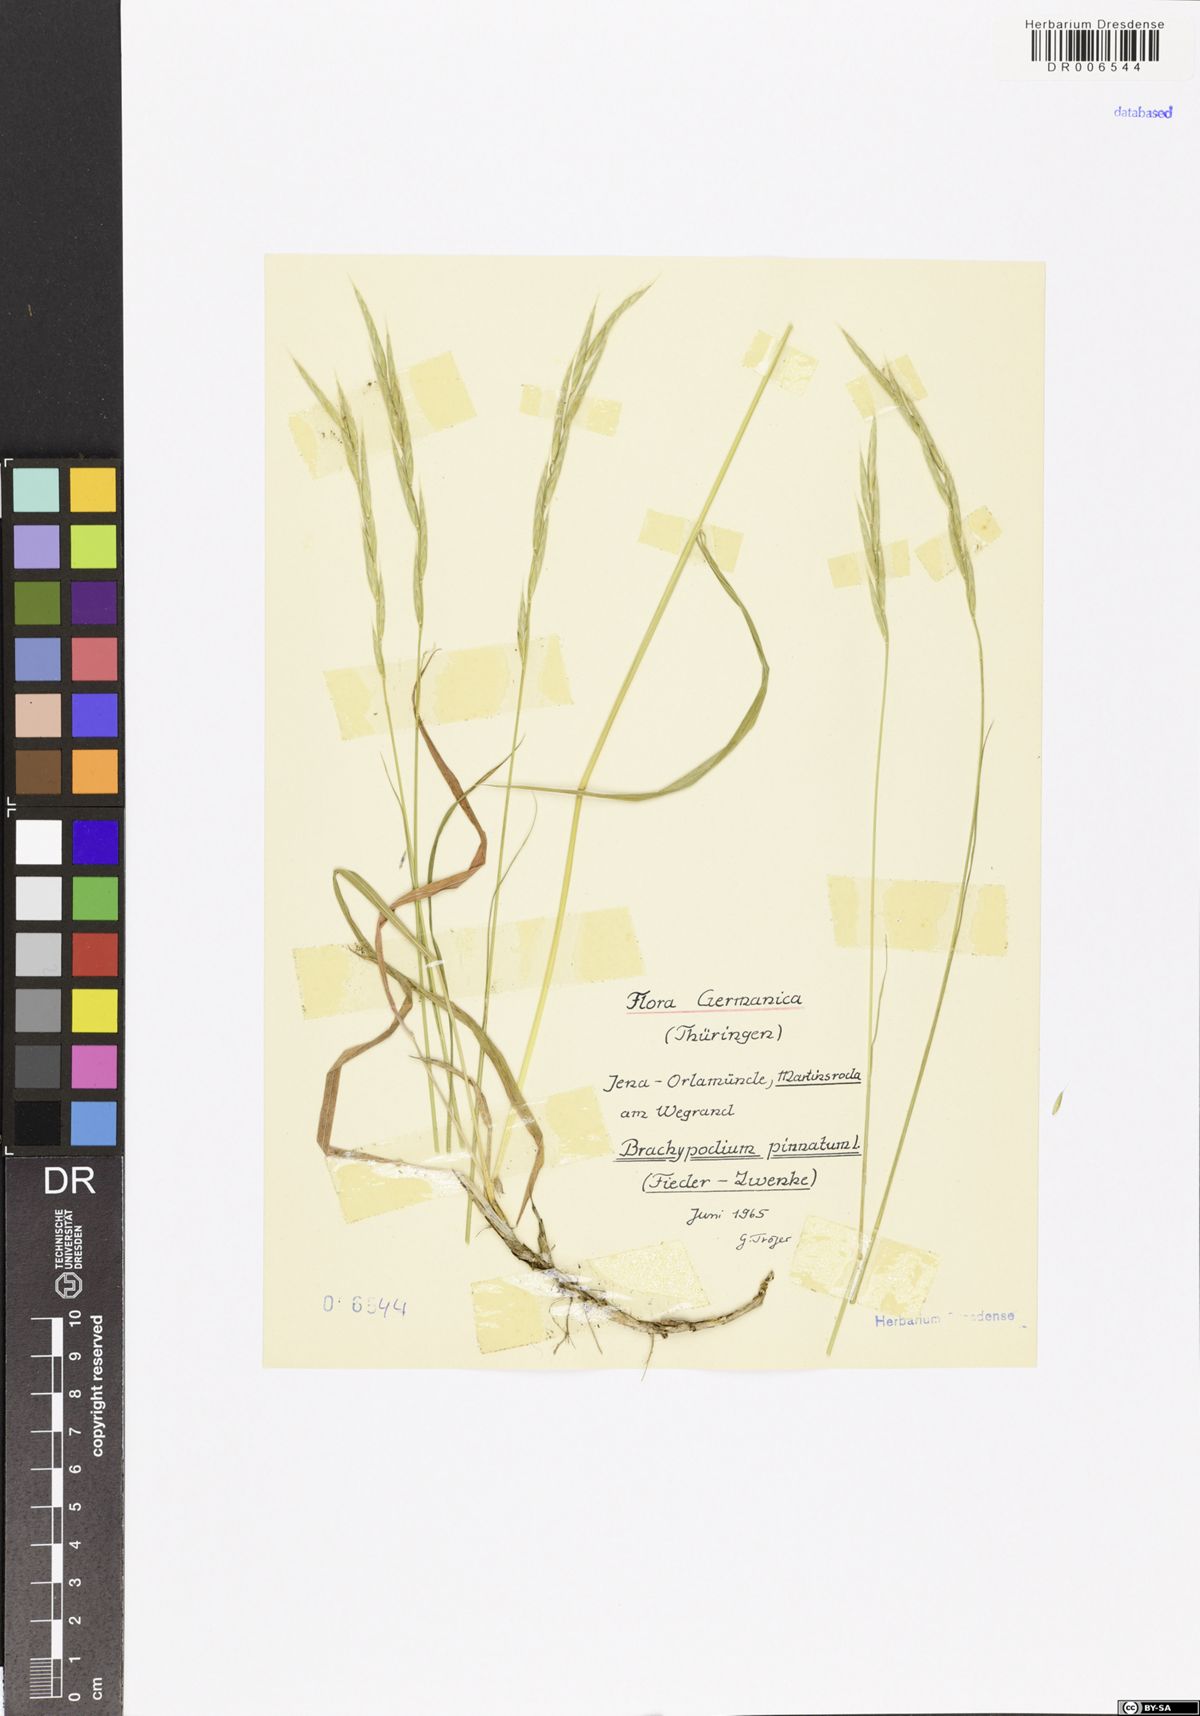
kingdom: Plantae
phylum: Tracheophyta
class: Liliopsida
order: Poales
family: Poaceae
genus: Brachypodium
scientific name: Brachypodium pinnatum
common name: Tor grass
